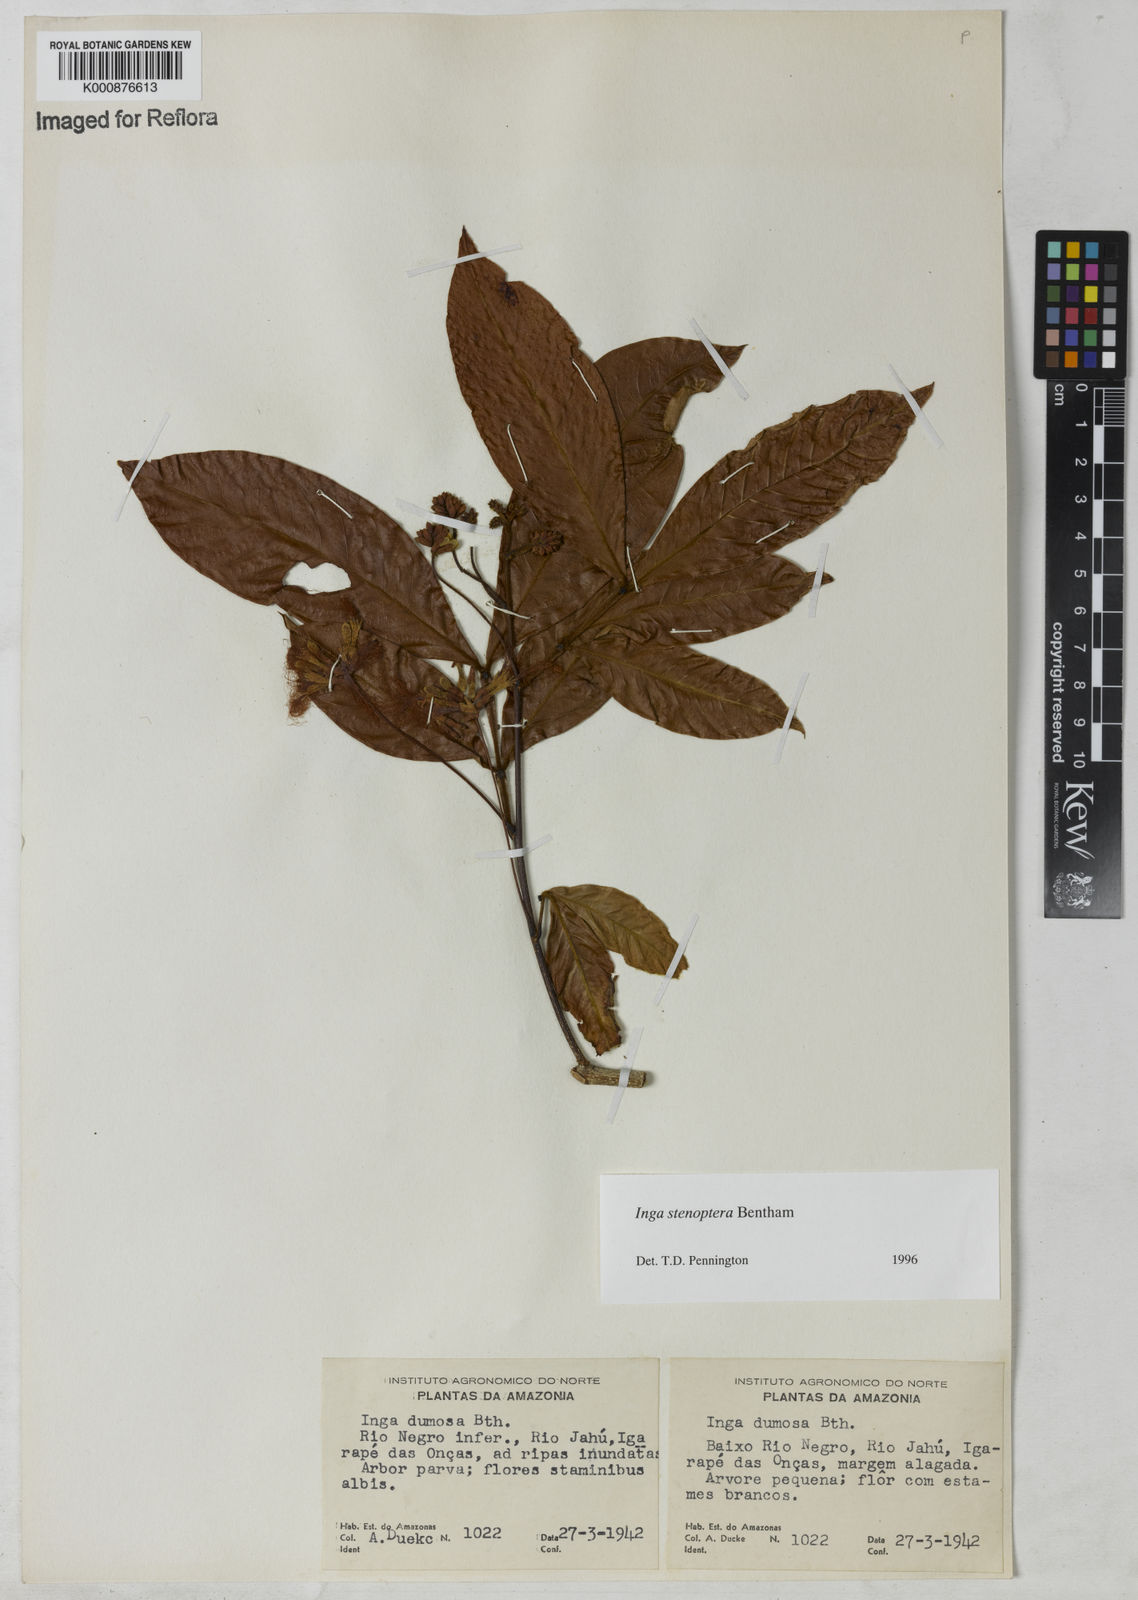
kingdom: Plantae
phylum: Tracheophyta
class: Magnoliopsida
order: Fabales
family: Fabaceae
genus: Inga
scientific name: Inga stenoptera
